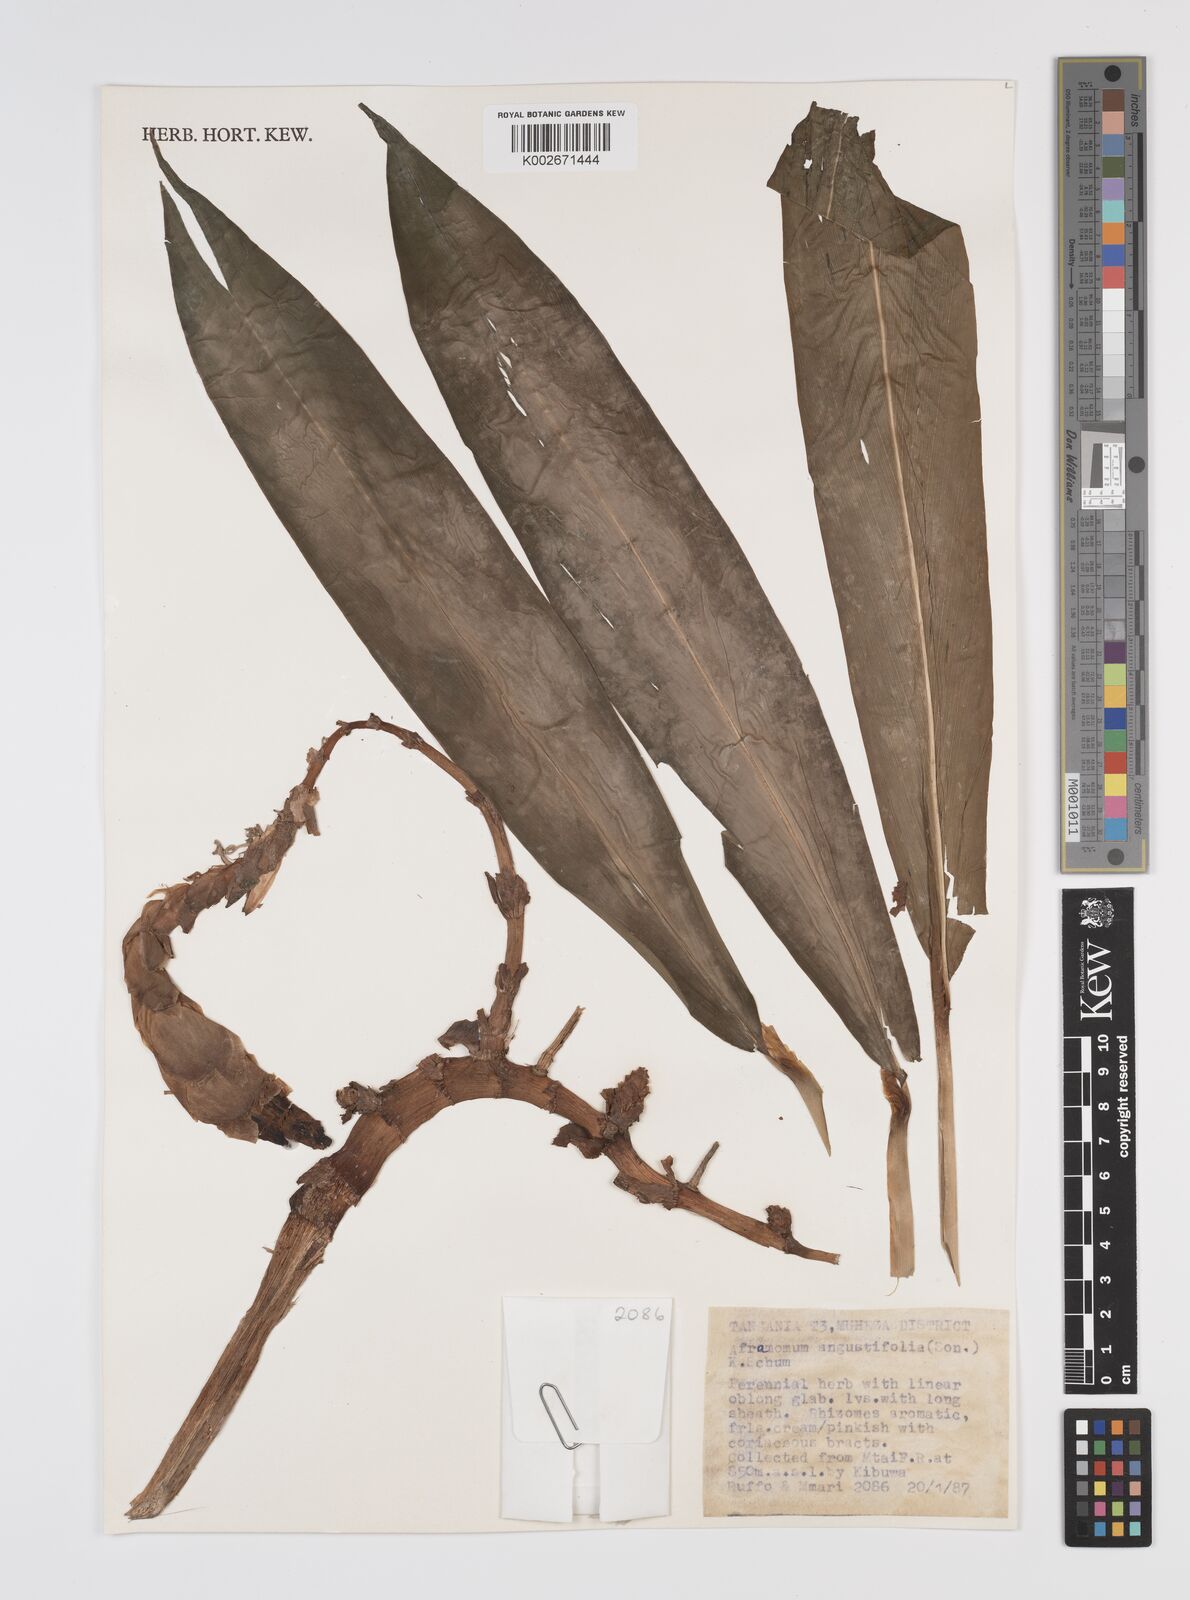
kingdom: Plantae
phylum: Tracheophyta
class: Liliopsida
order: Zingiberales
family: Zingiberaceae
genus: Aframomum
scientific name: Aframomum angustifolium
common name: Guinea grains
